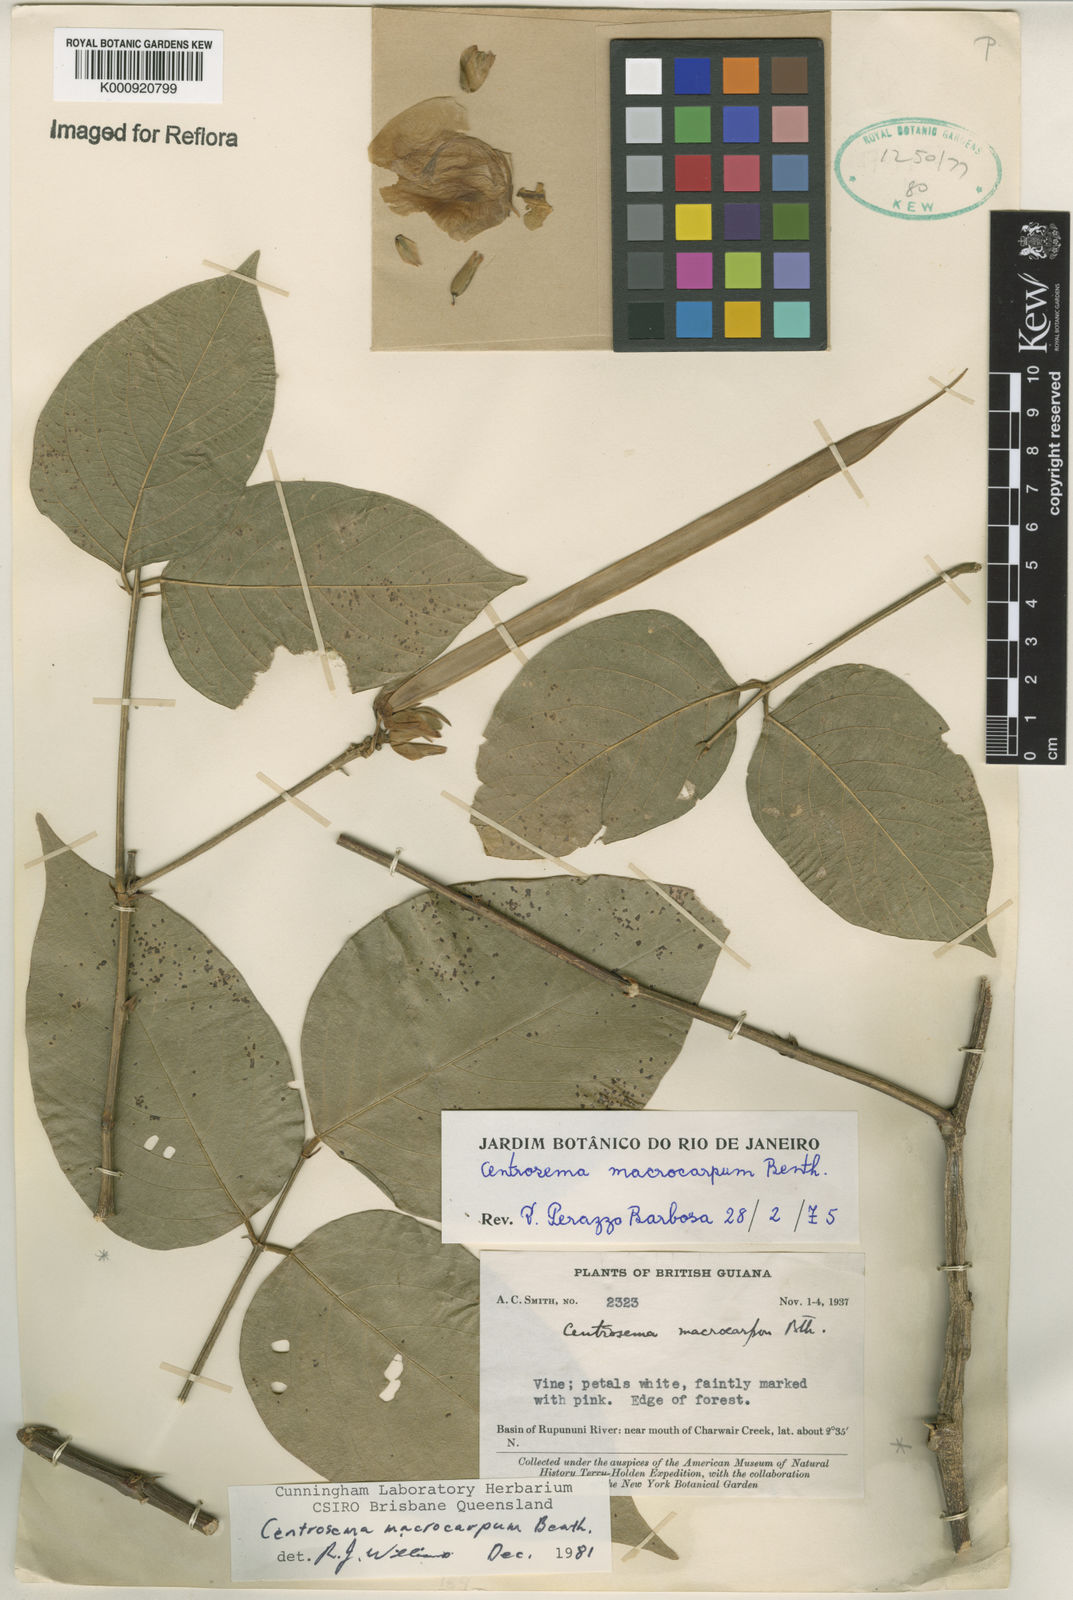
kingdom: Plantae
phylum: Tracheophyta
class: Magnoliopsida
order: Fabales
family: Fabaceae
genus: Centrosema
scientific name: Centrosema macrocarpum
